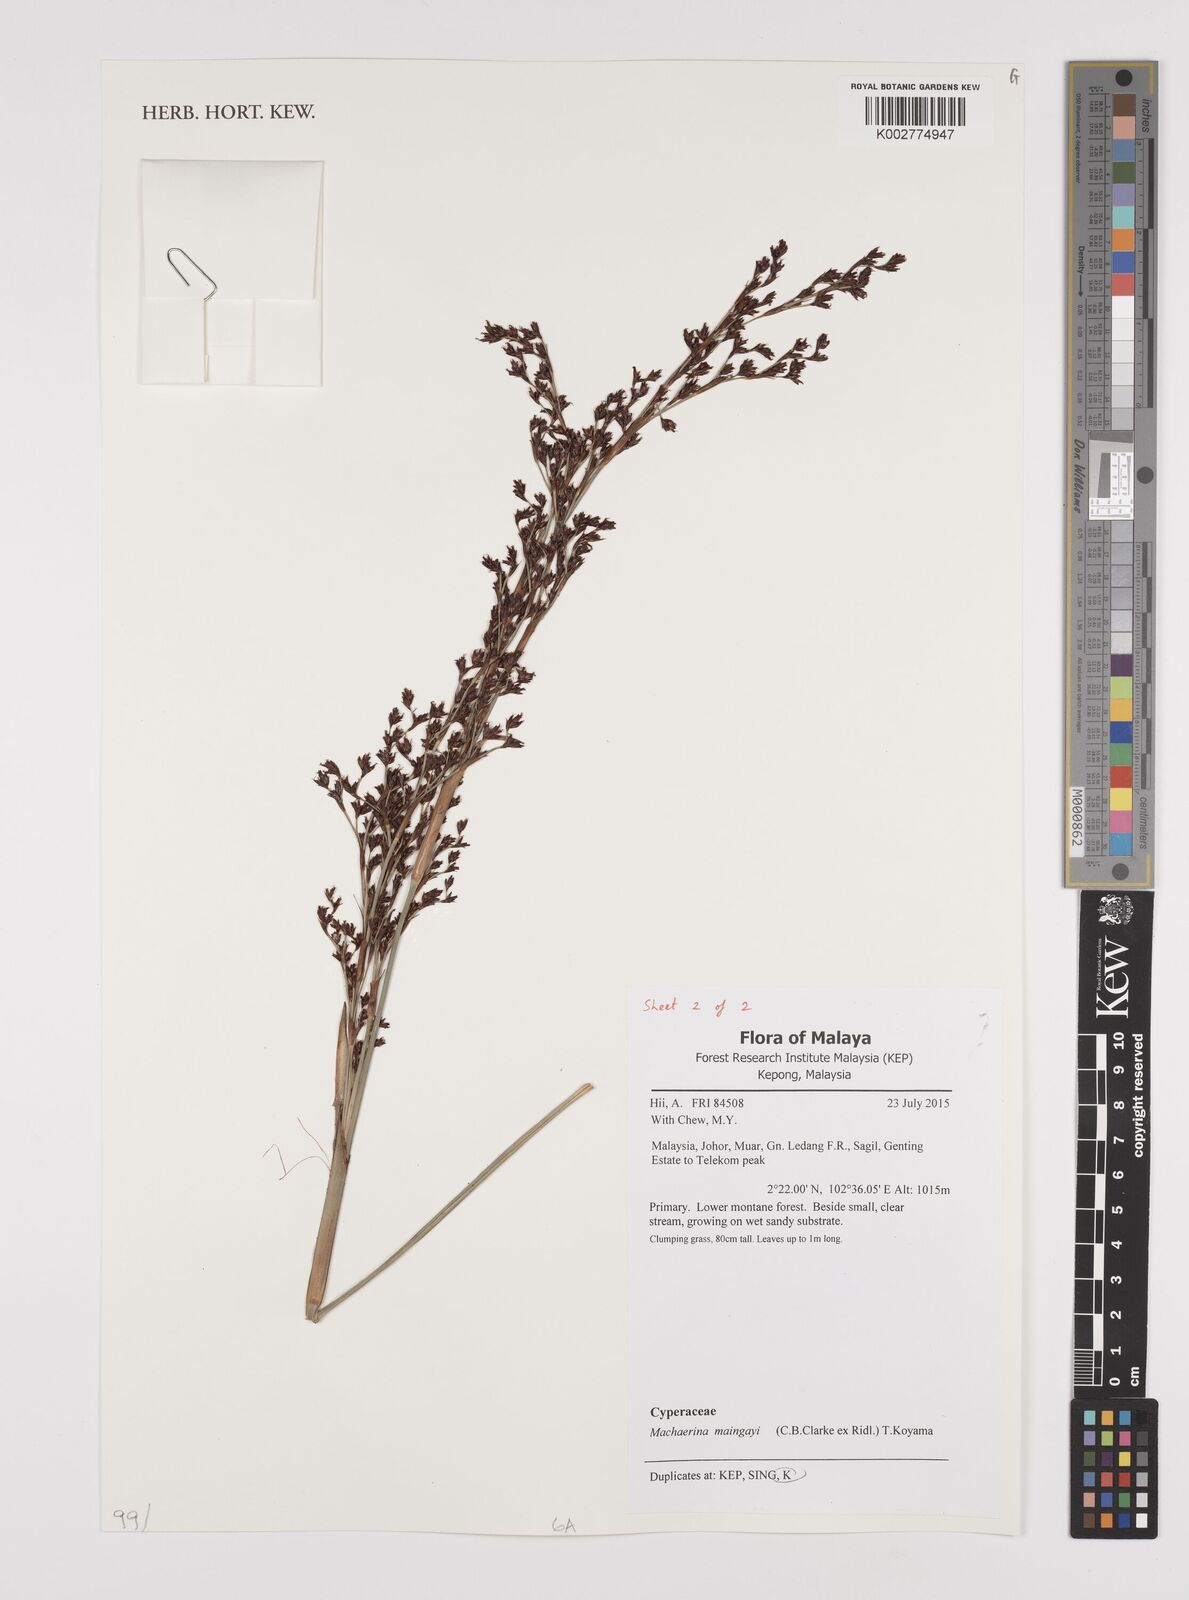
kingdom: Plantae
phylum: Tracheophyta
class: Liliopsida
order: Poales
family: Cyperaceae
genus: Machaerina
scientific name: Machaerina maingayi
